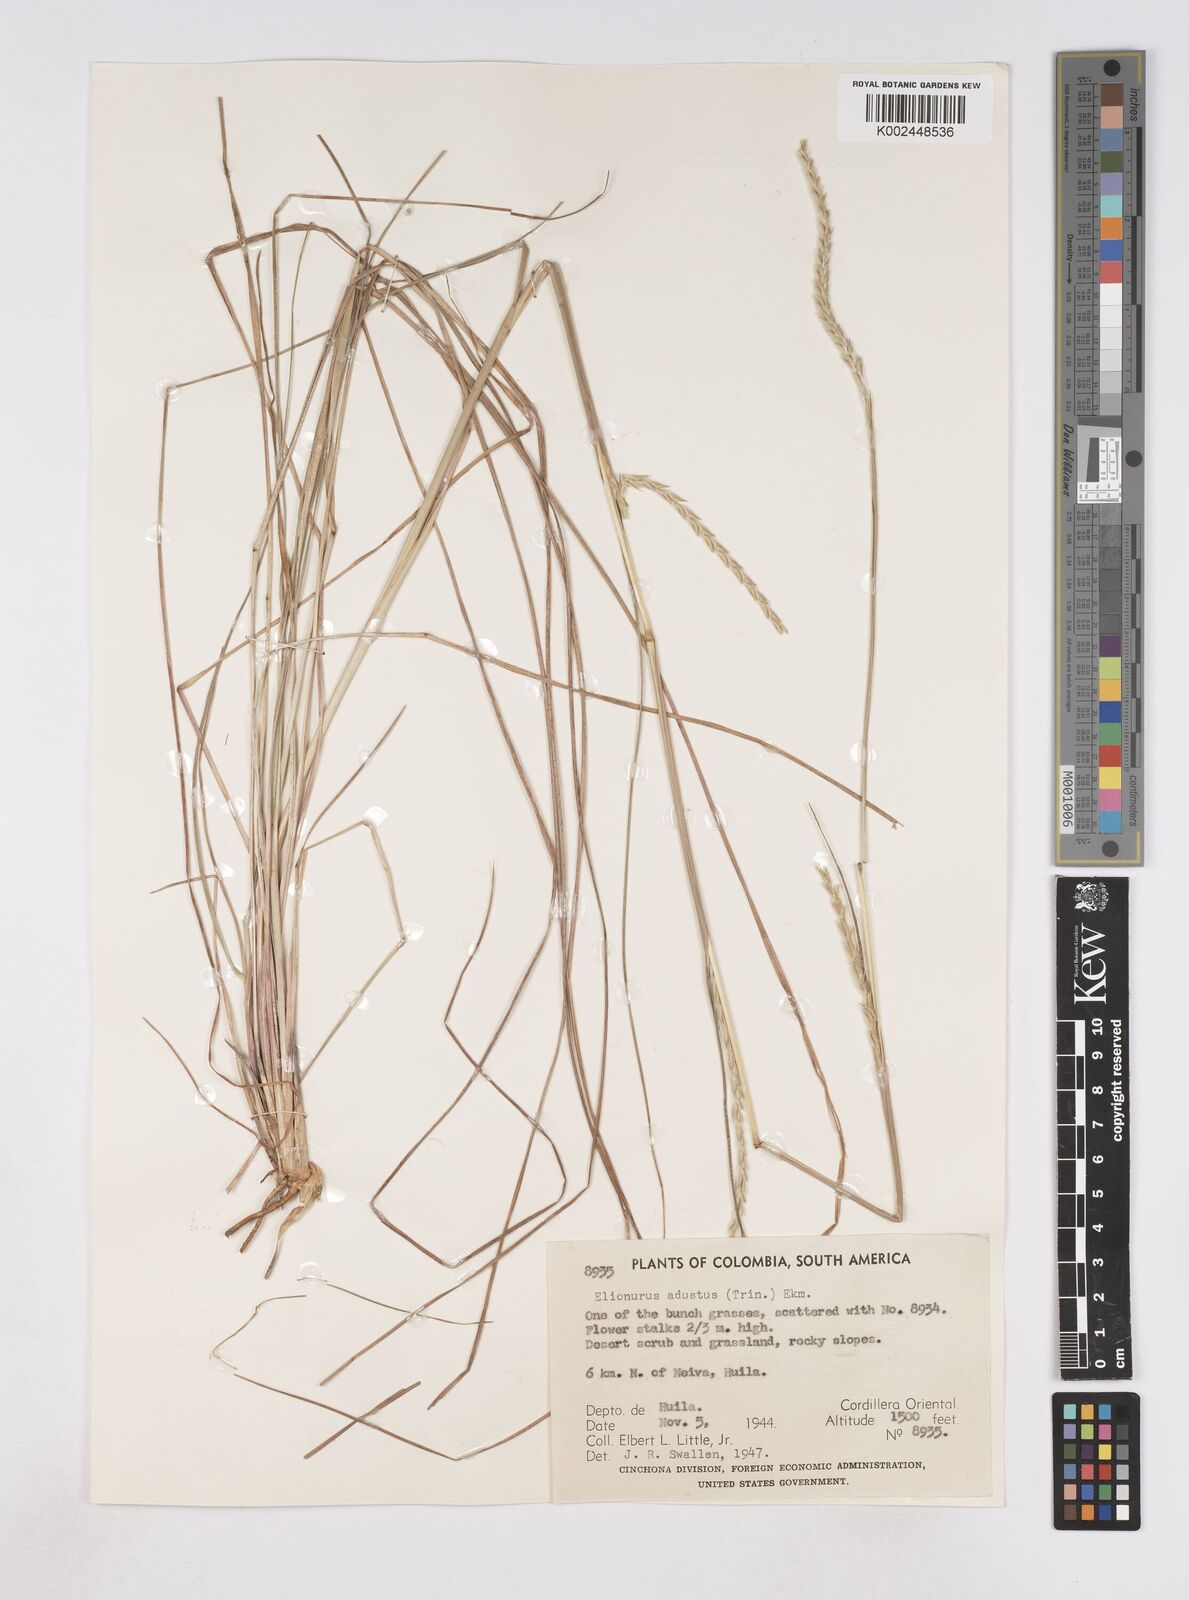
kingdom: Plantae
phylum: Tracheophyta
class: Liliopsida
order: Poales
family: Poaceae
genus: Elionurus
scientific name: Elionurus muticus
